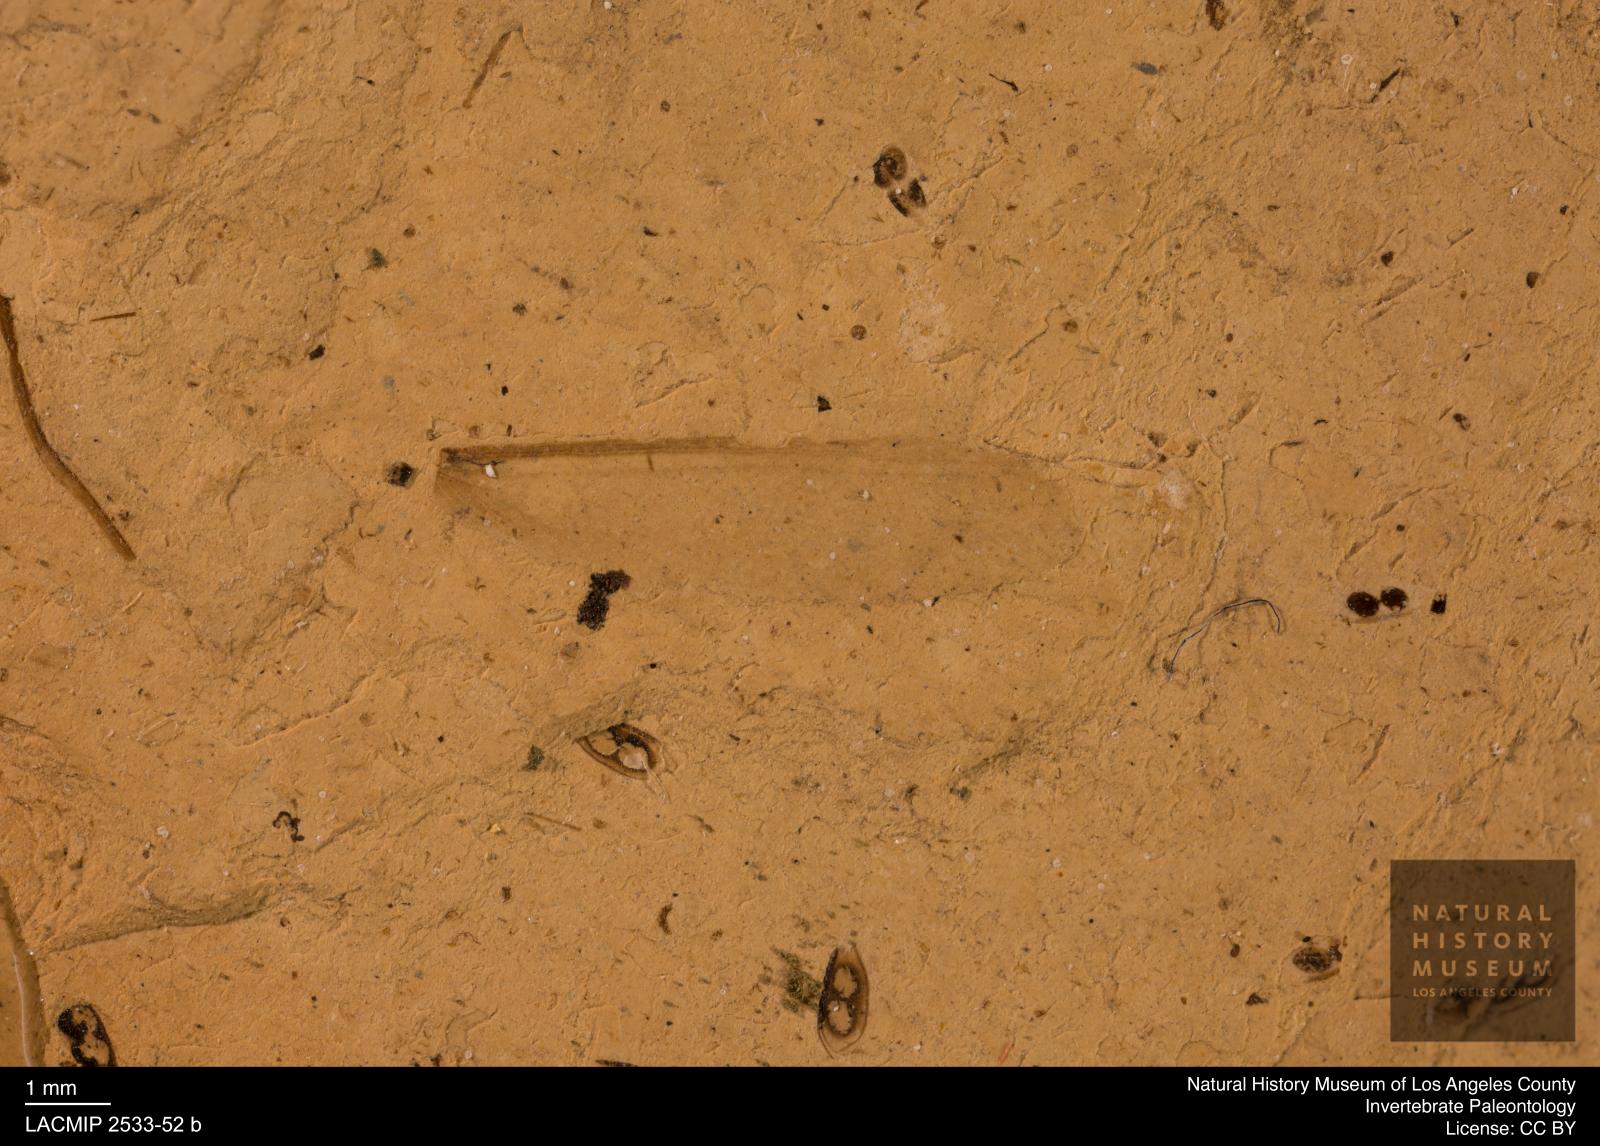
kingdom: Animalia
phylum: Arthropoda
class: Insecta
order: Blattodea
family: Kalotermitidae
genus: Kalotermes
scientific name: Kalotermes rhenanus
